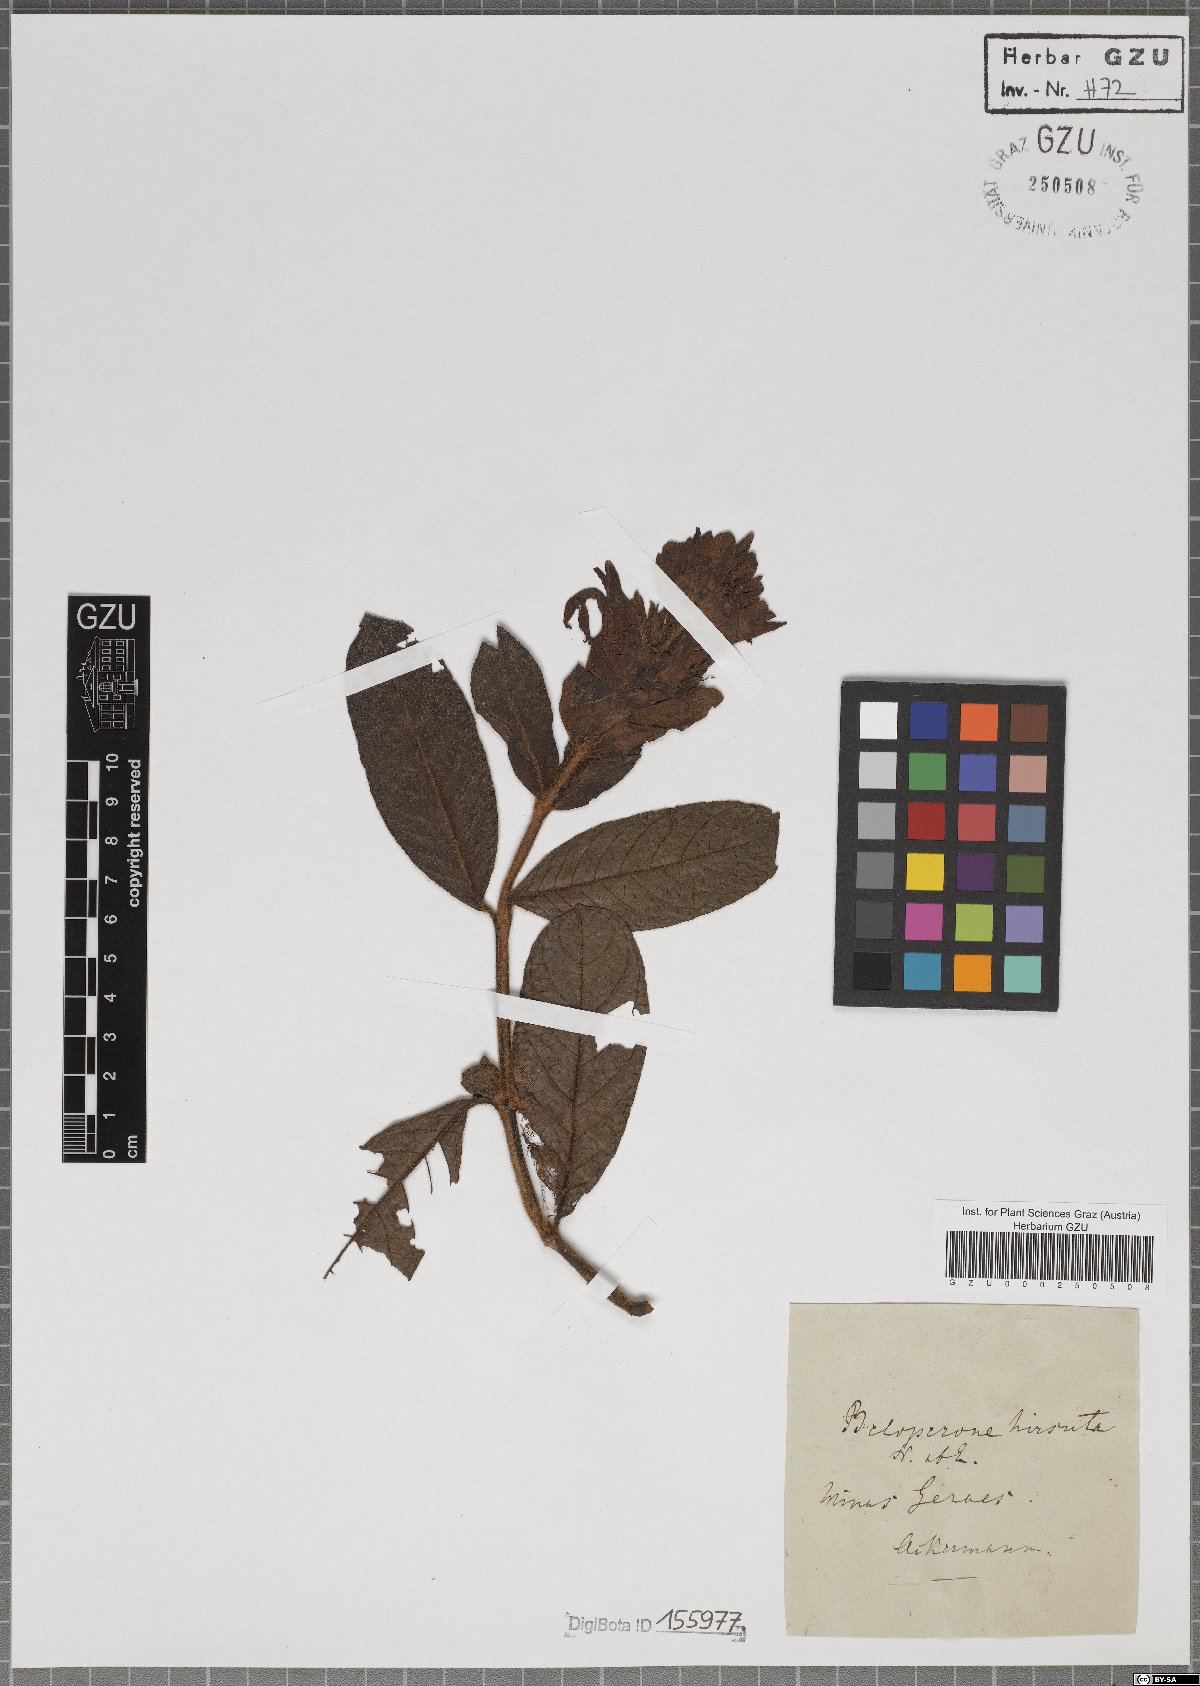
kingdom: Plantae
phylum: Tracheophyta
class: Magnoliopsida
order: Lamiales
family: Acanthaceae
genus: Justicia
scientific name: Justicia pohliana
